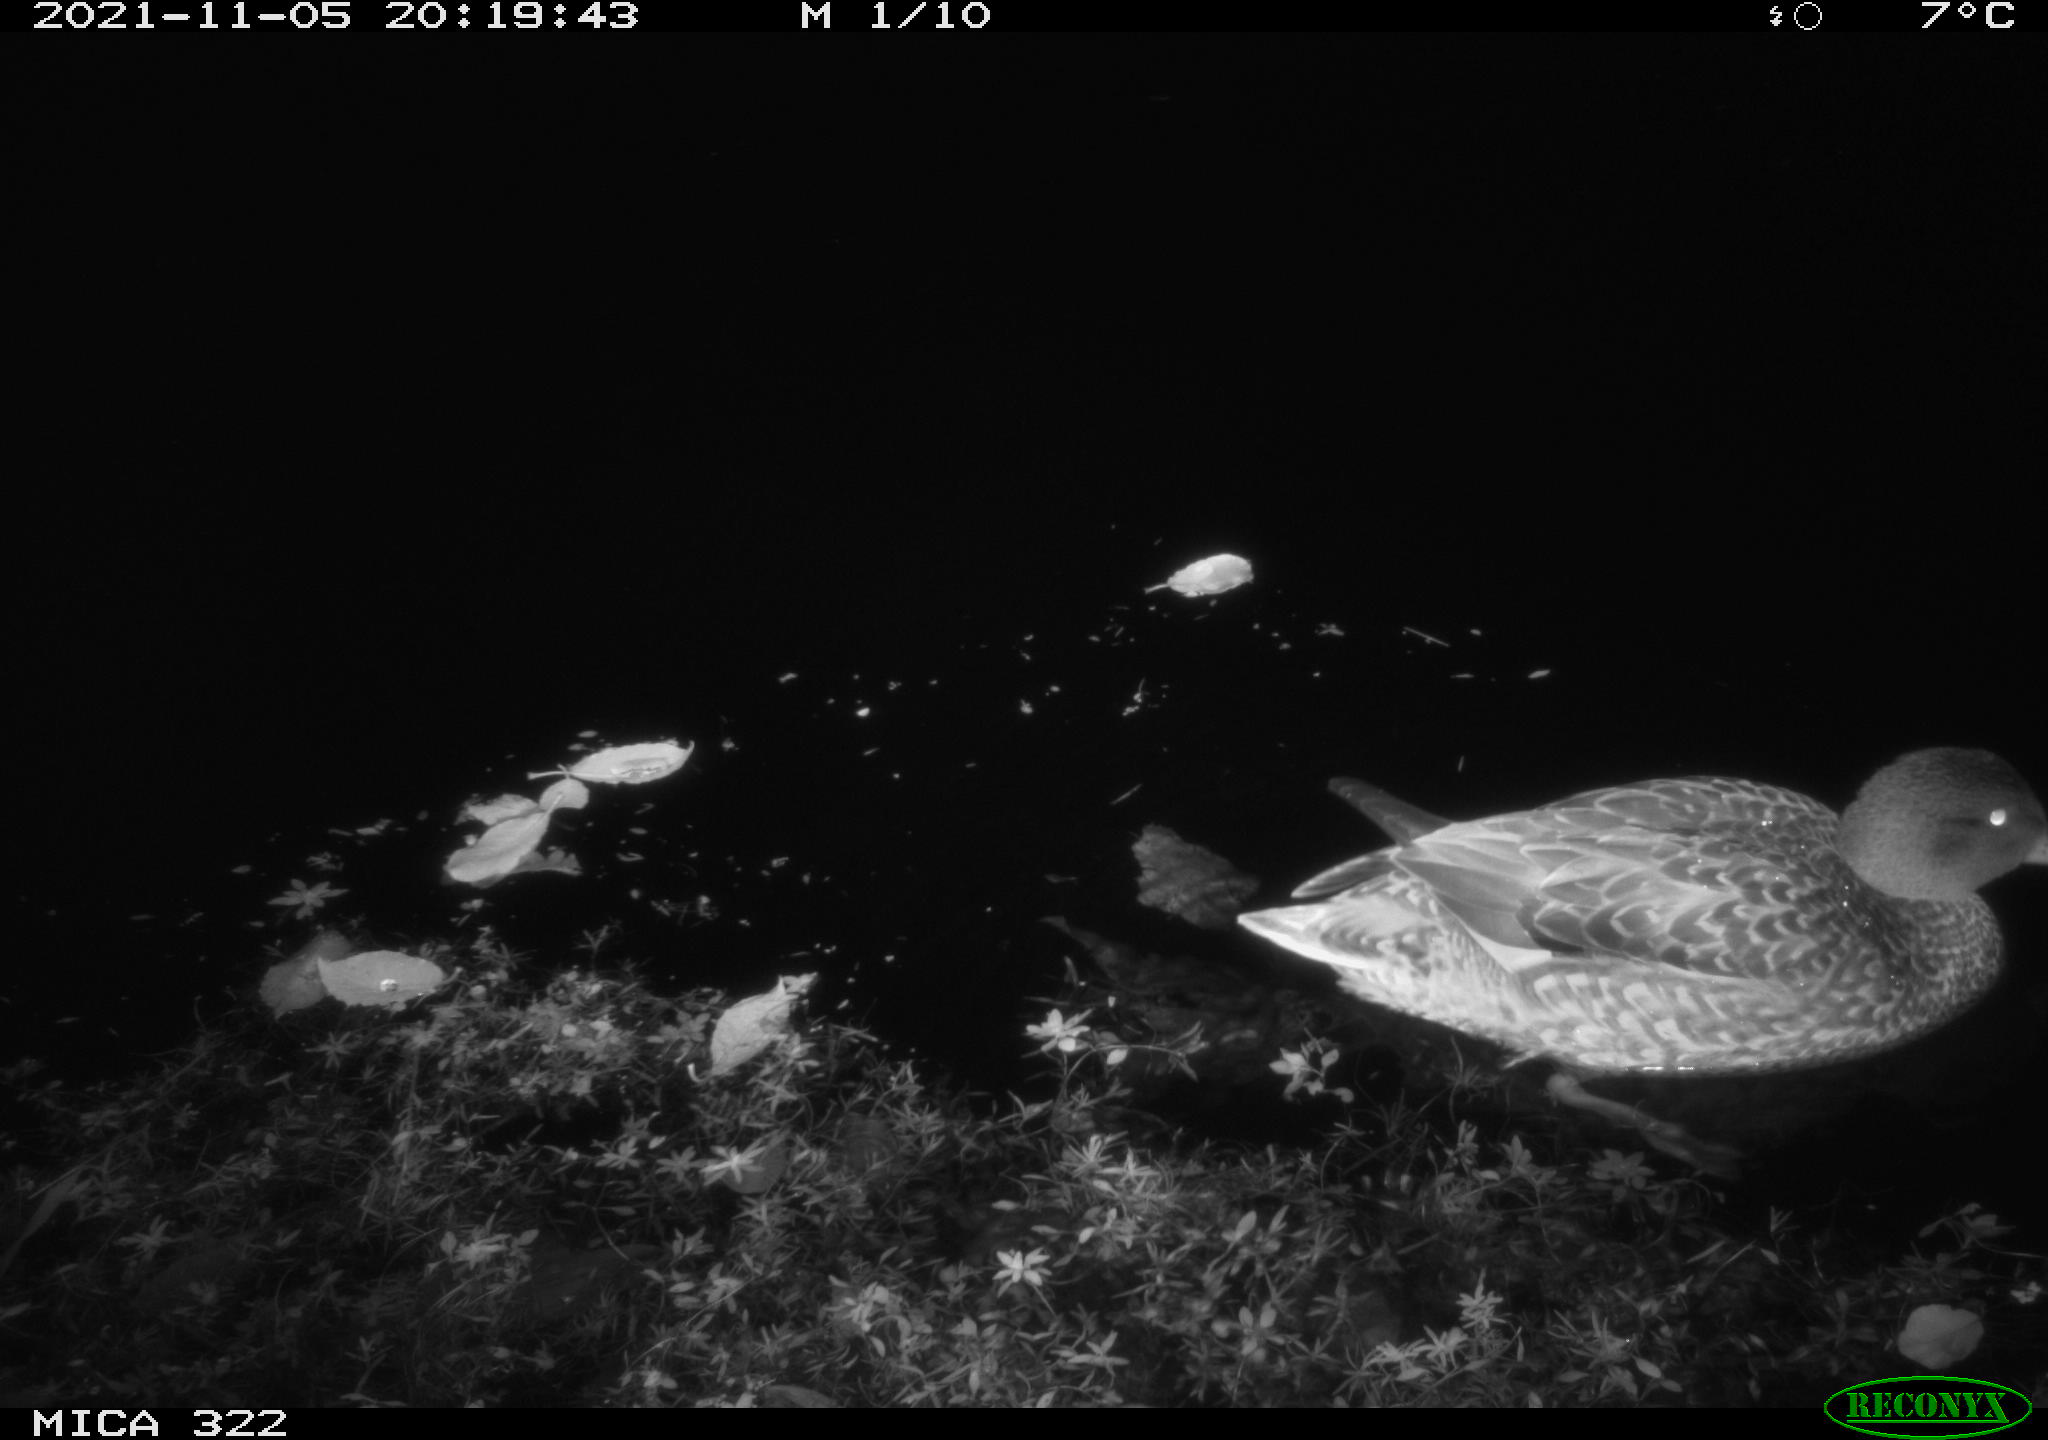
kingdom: Animalia
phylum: Chordata
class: Aves
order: Anseriformes
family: Anatidae
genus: Anas
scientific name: Anas platyrhynchos
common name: Mallard
